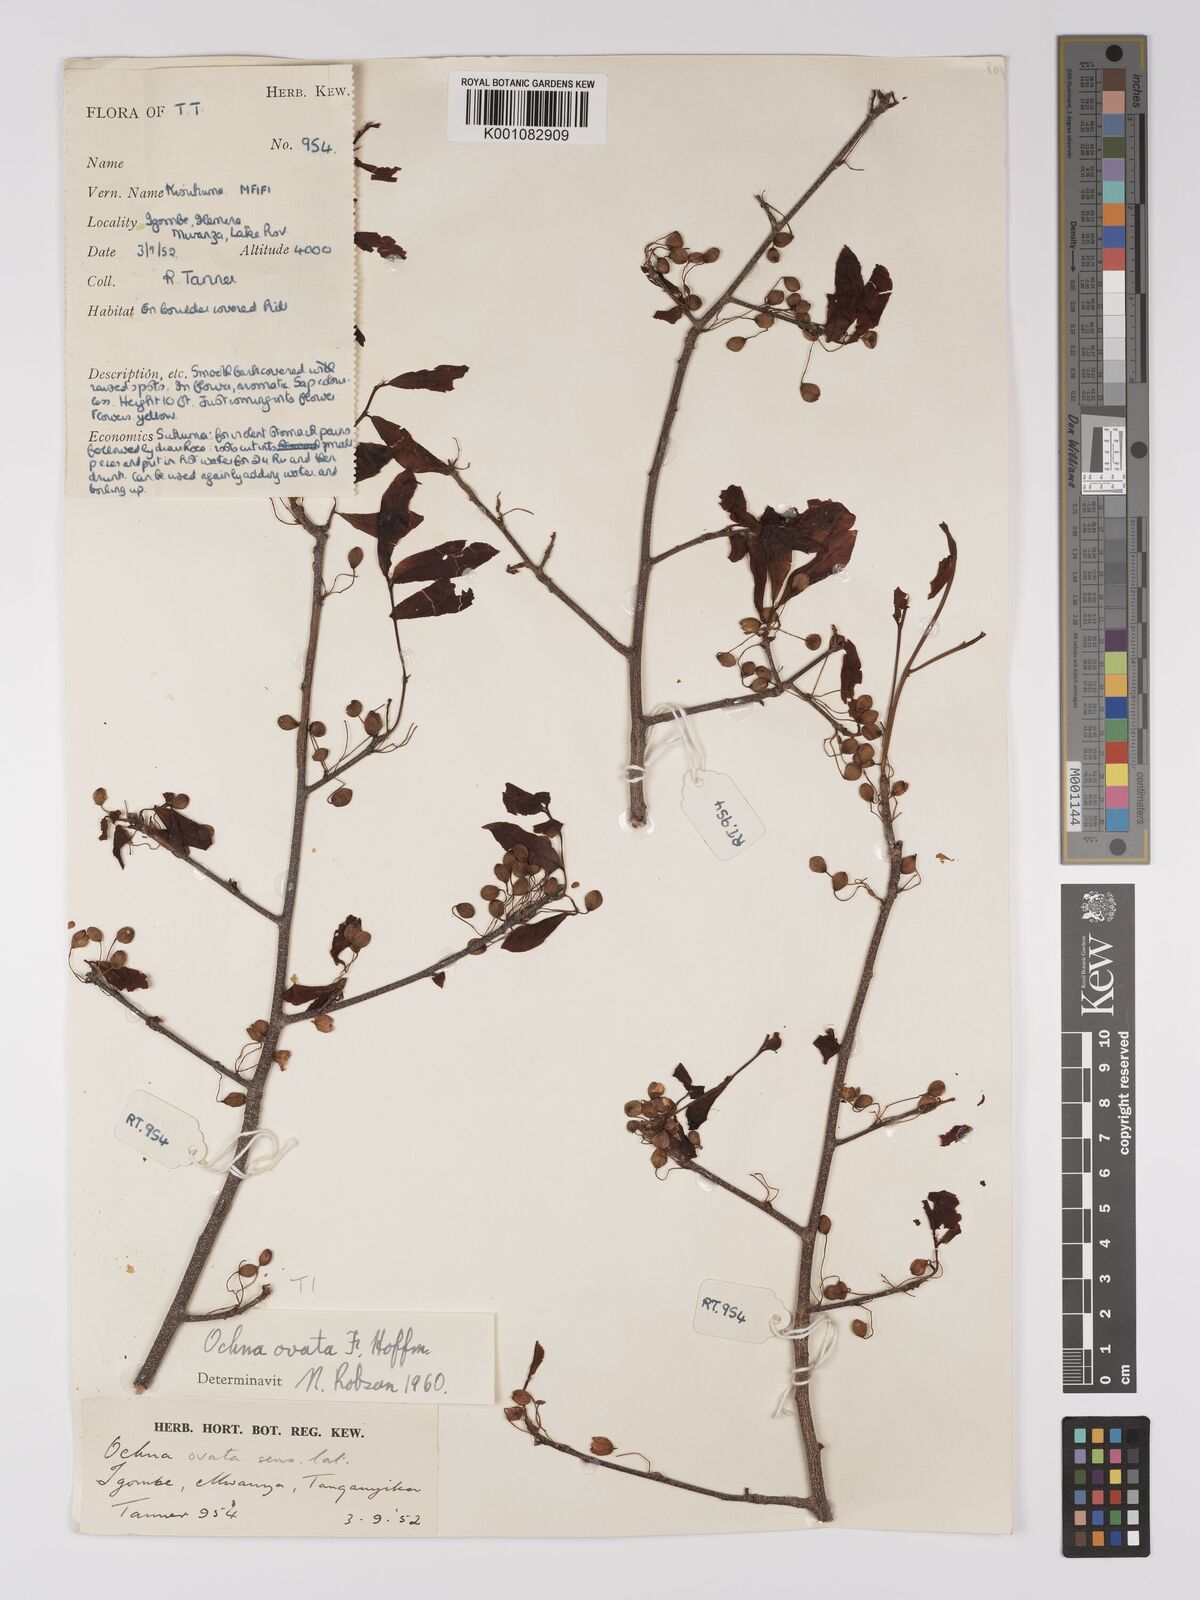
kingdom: Plantae
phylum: Tracheophyta
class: Magnoliopsida
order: Malpighiales
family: Ochnaceae
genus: Ochna
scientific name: Ochna ovata
